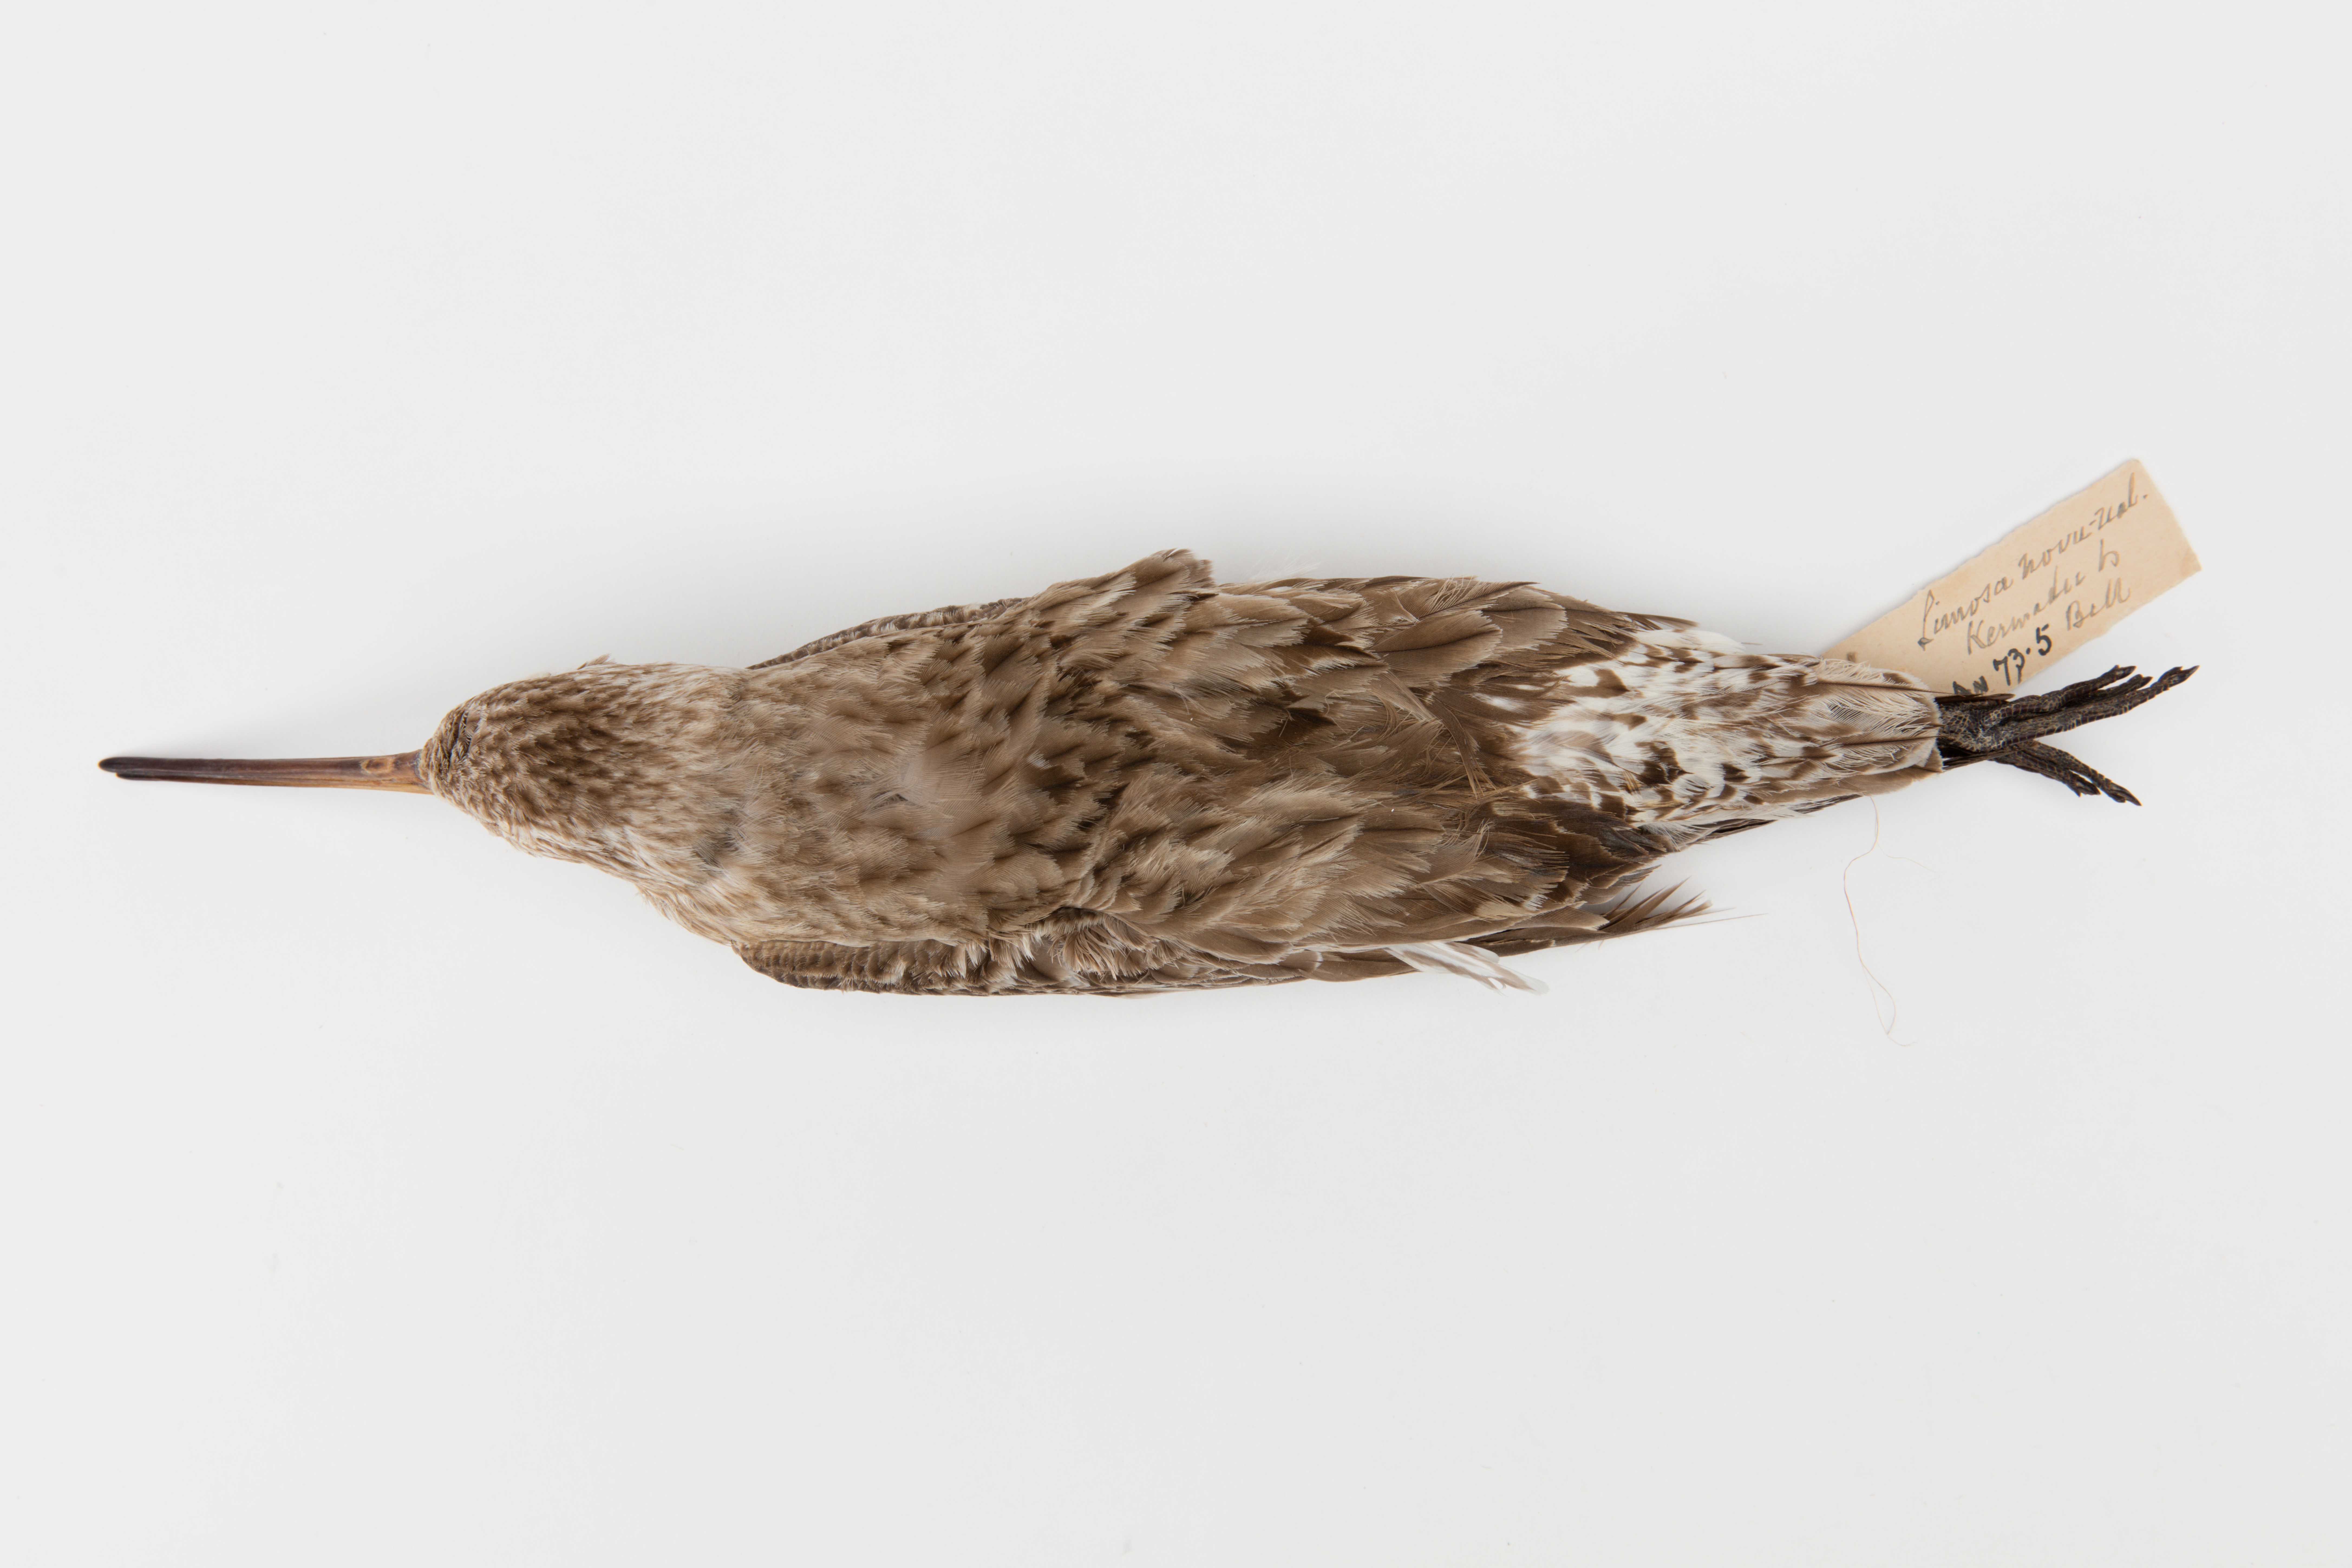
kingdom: Animalia
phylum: Chordata
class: Aves
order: Charadriiformes
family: Scolopacidae
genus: Limosa
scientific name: Limosa lapponica
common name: Bar-tailed godwit
